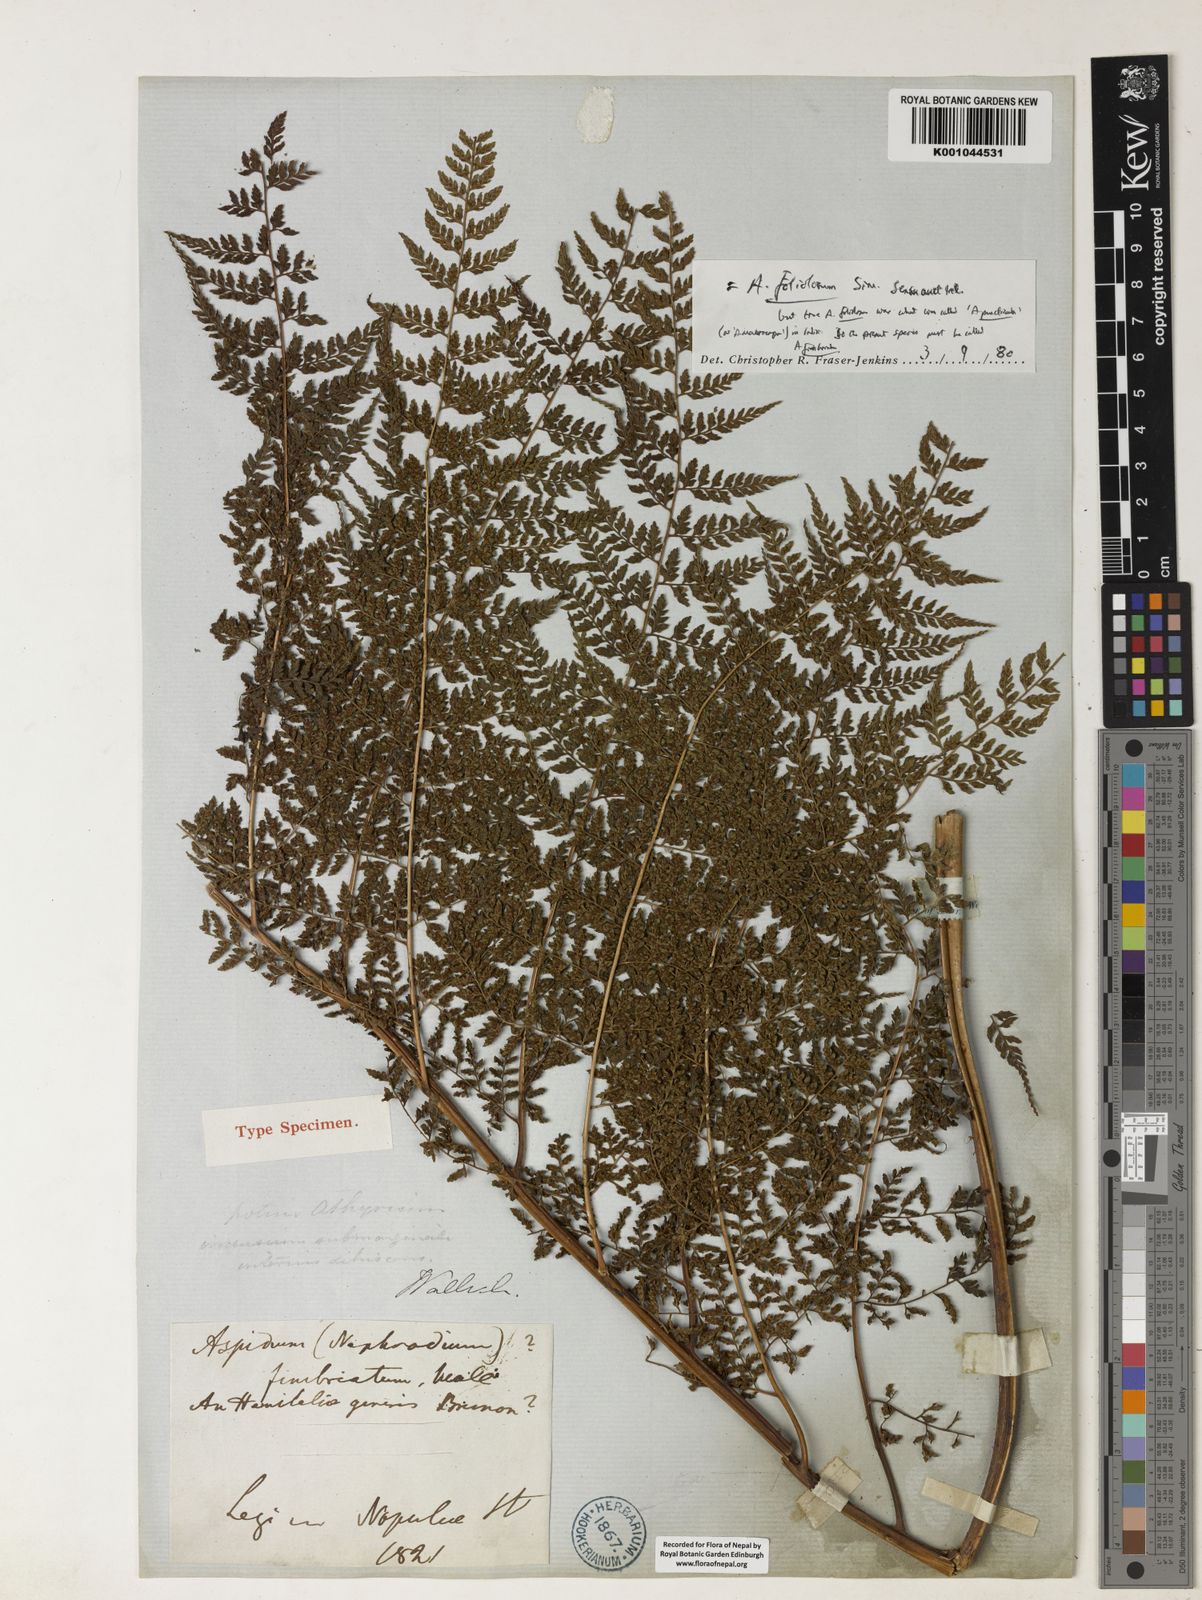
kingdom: Plantae
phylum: Tracheophyta
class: Polypodiopsida
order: Polypodiales
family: Athyriaceae
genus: Athyrium
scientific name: Athyrium fimbriatum
